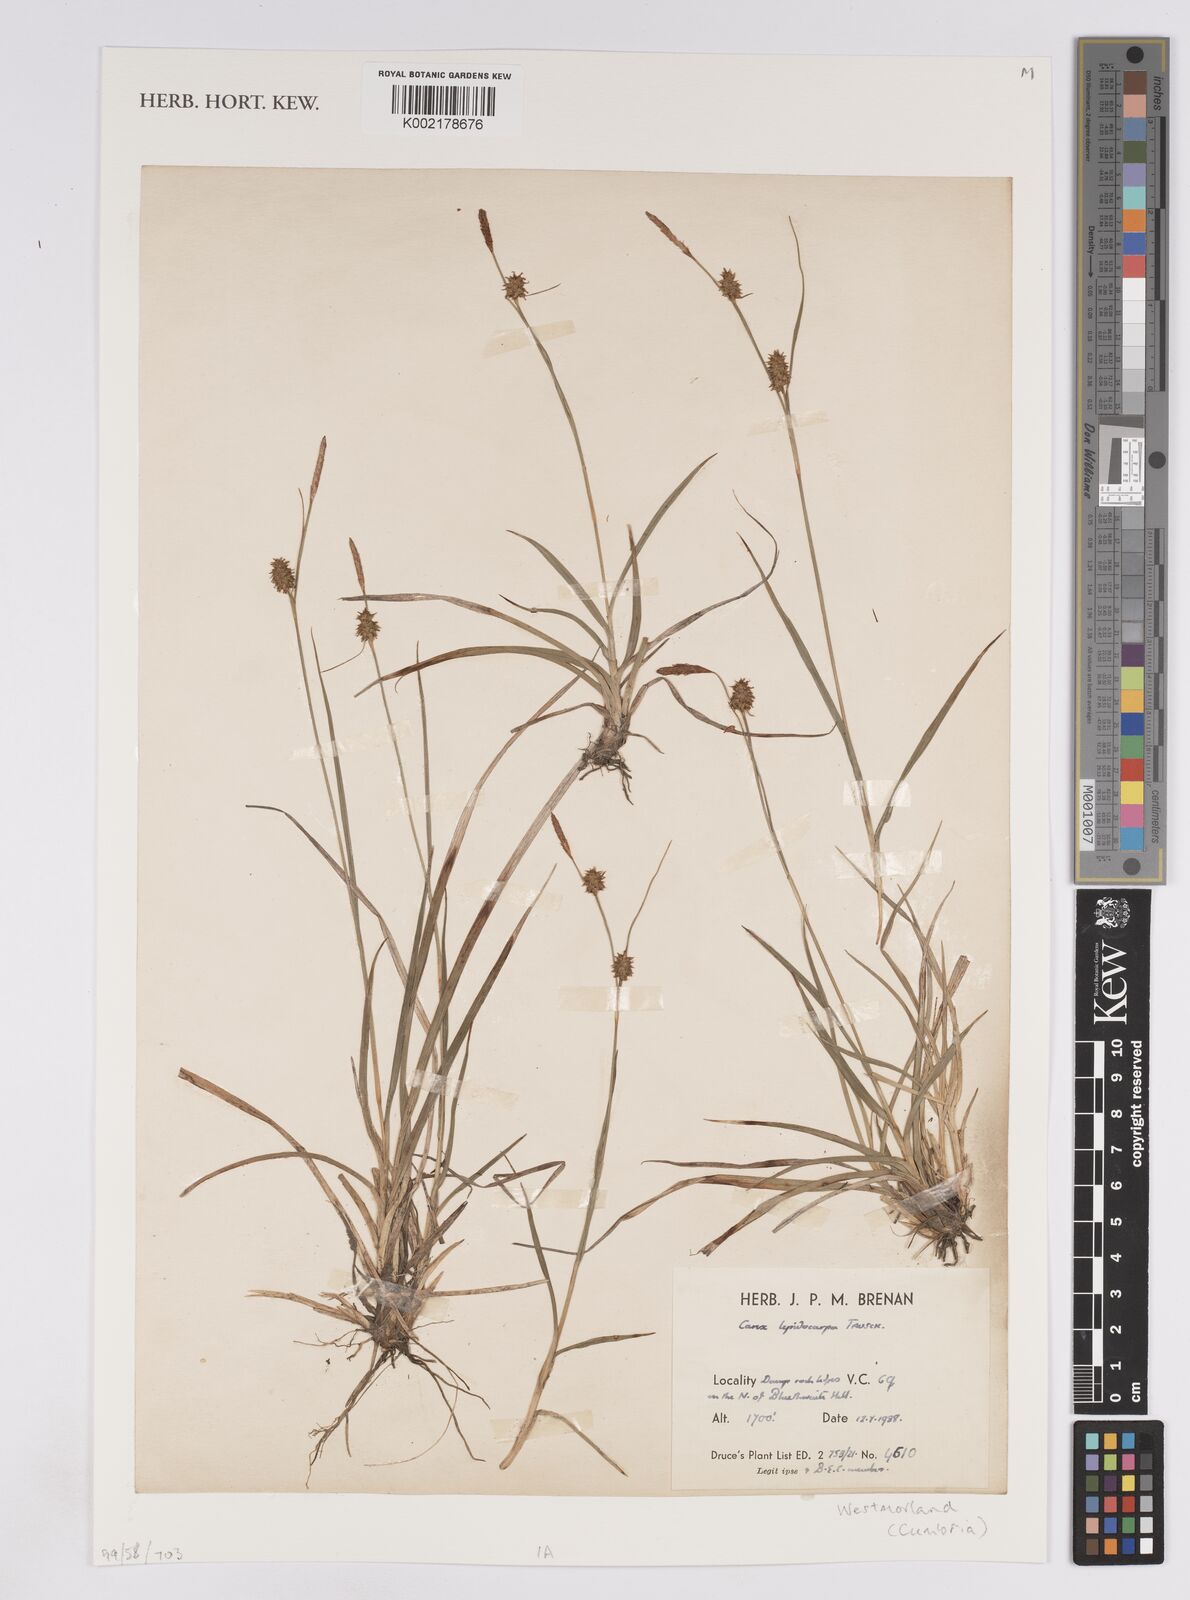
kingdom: Plantae
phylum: Tracheophyta
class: Liliopsida
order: Poales
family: Cyperaceae
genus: Carex
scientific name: Carex lepidocarpa
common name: Long-stalked yellow-sedge
